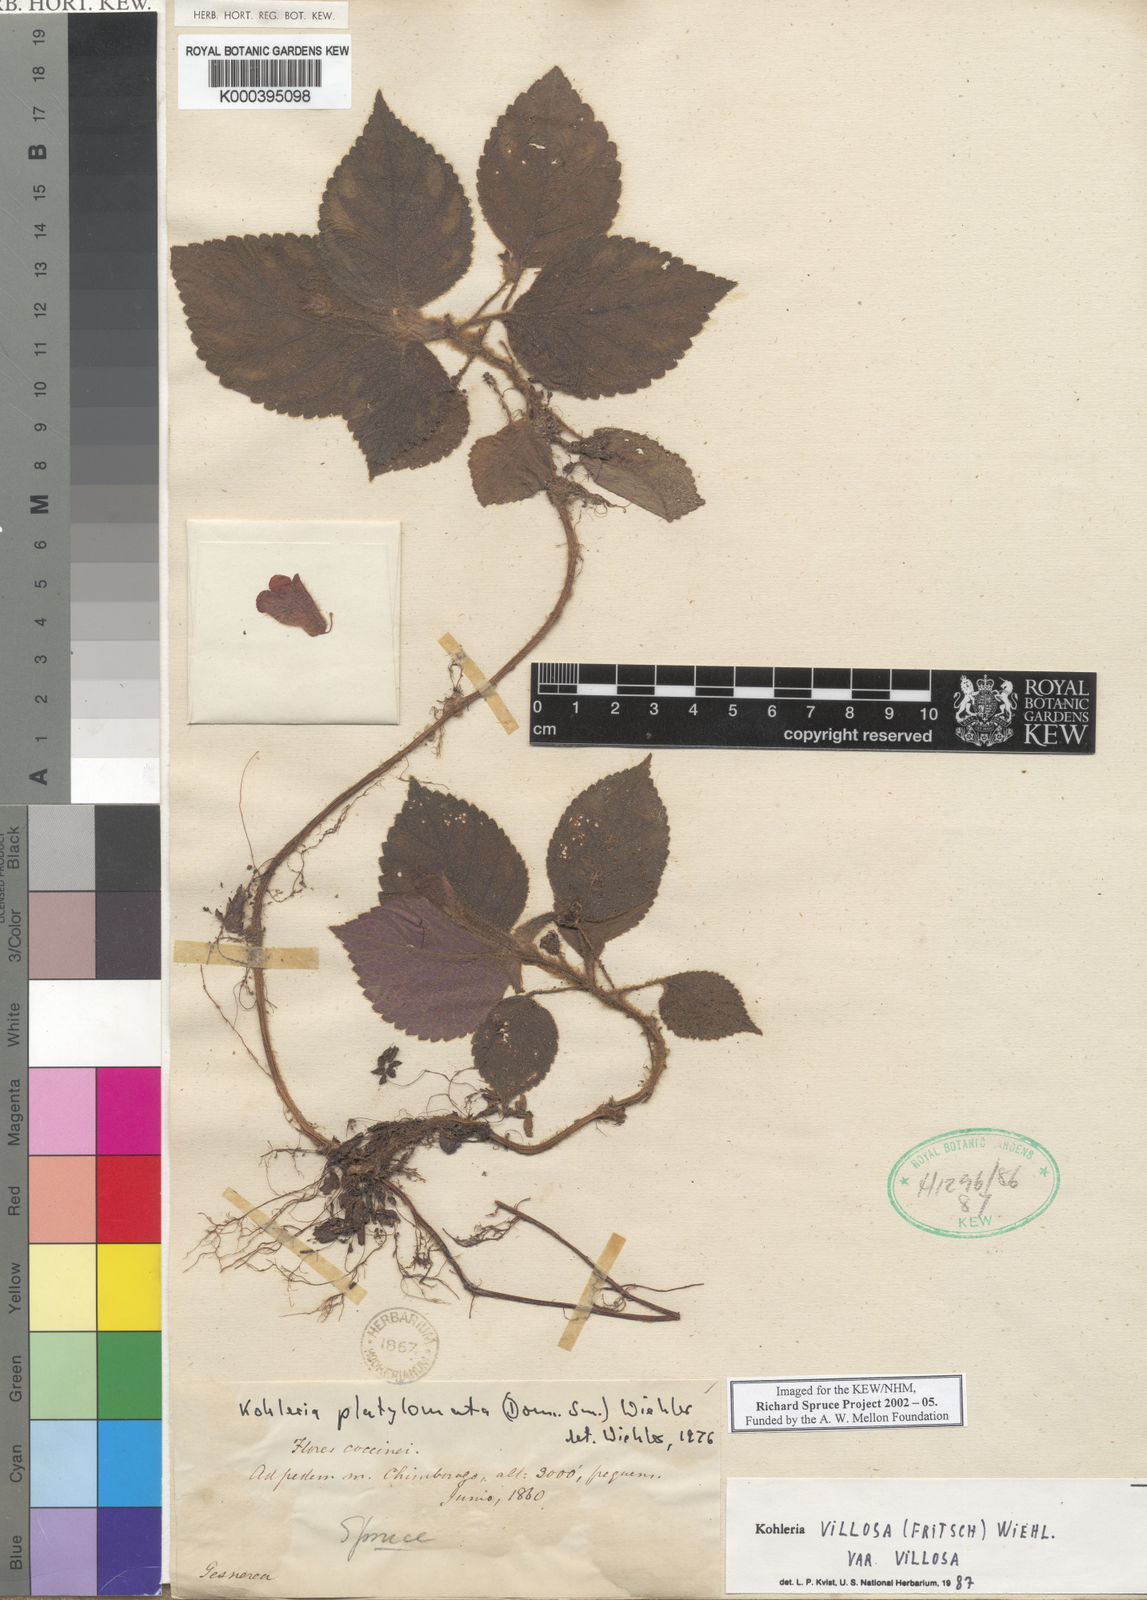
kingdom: Plantae
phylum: Tracheophyta
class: Magnoliopsida
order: Lamiales
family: Gesneriaceae
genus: Kohleria
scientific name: Kohleria villosa
